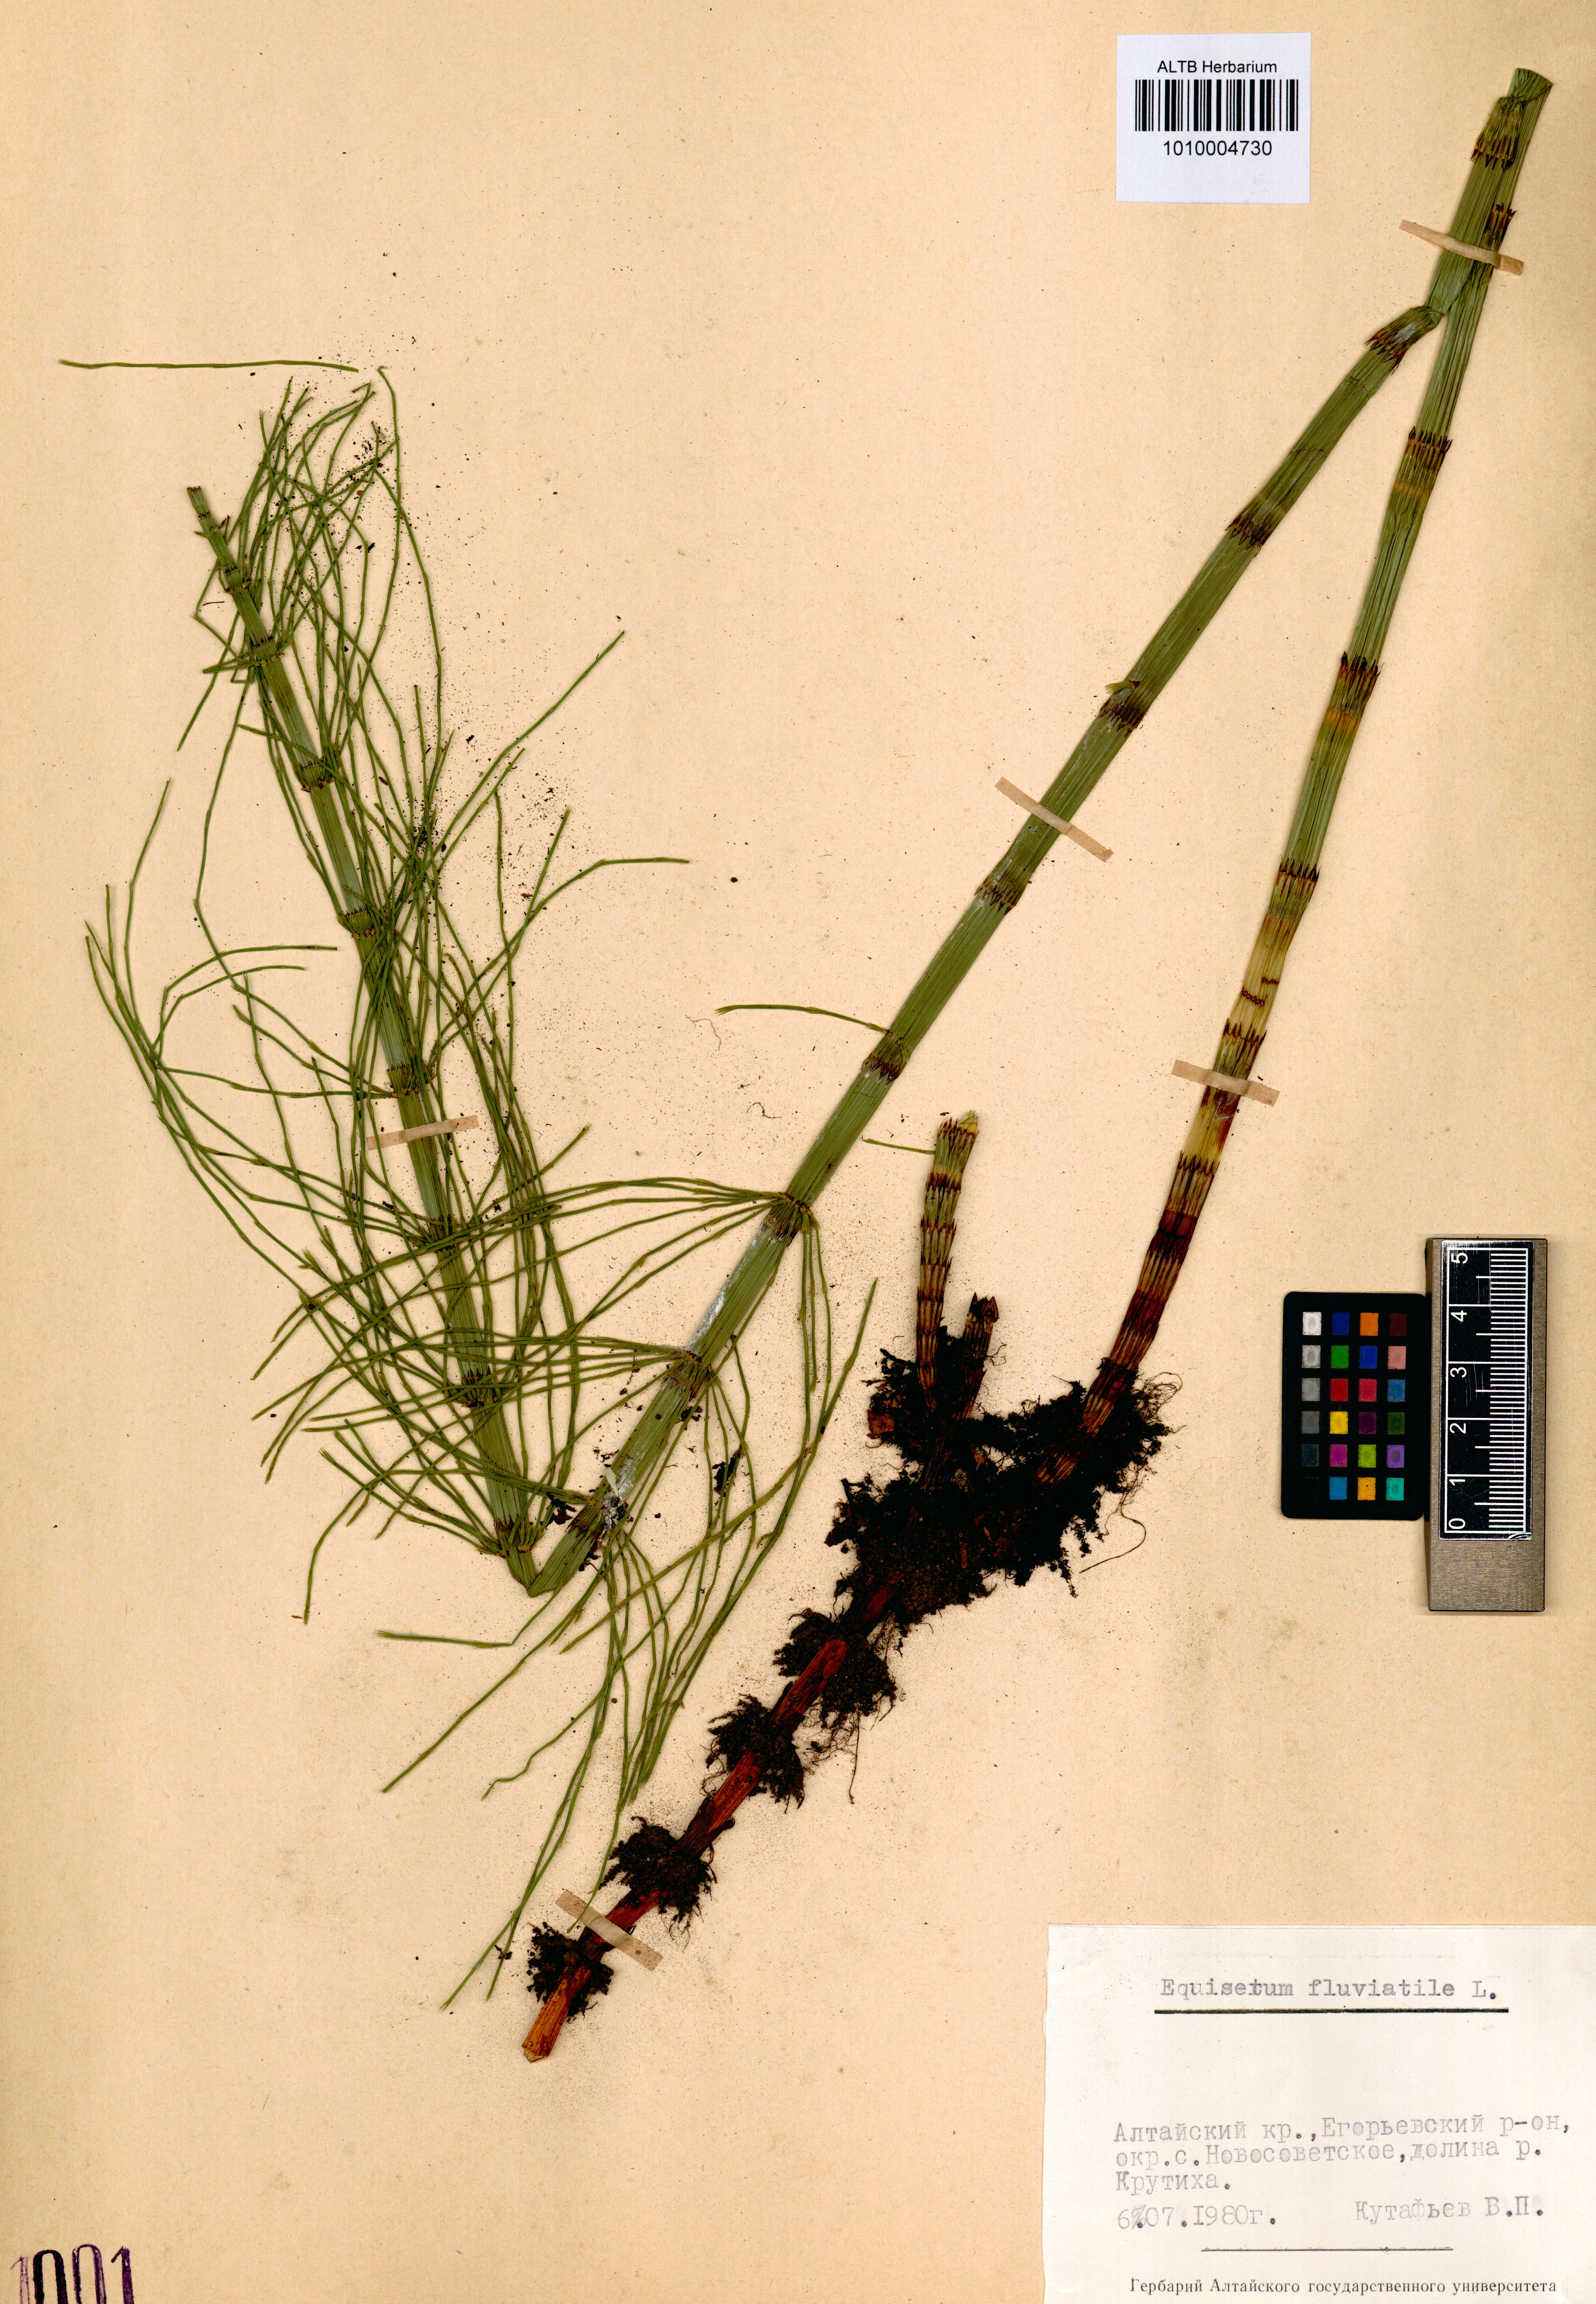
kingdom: Plantae
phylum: Tracheophyta
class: Polypodiopsida
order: Equisetales
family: Equisetaceae
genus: Equisetum
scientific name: Equisetum fluviatile
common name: Water horsetail
